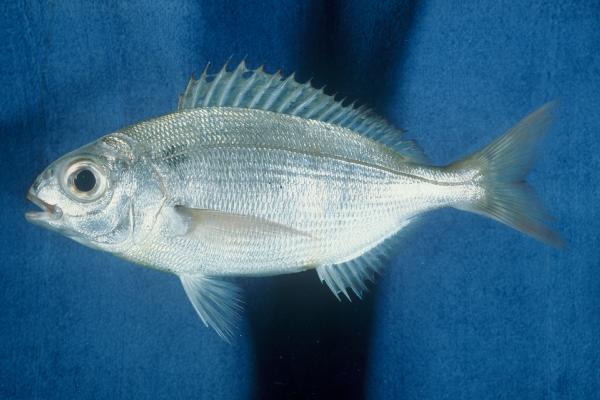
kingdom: Animalia
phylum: Chordata
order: Perciformes
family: Sparidae
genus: Pagellus
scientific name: Pagellus bogaraveo
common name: Red sea-bream
